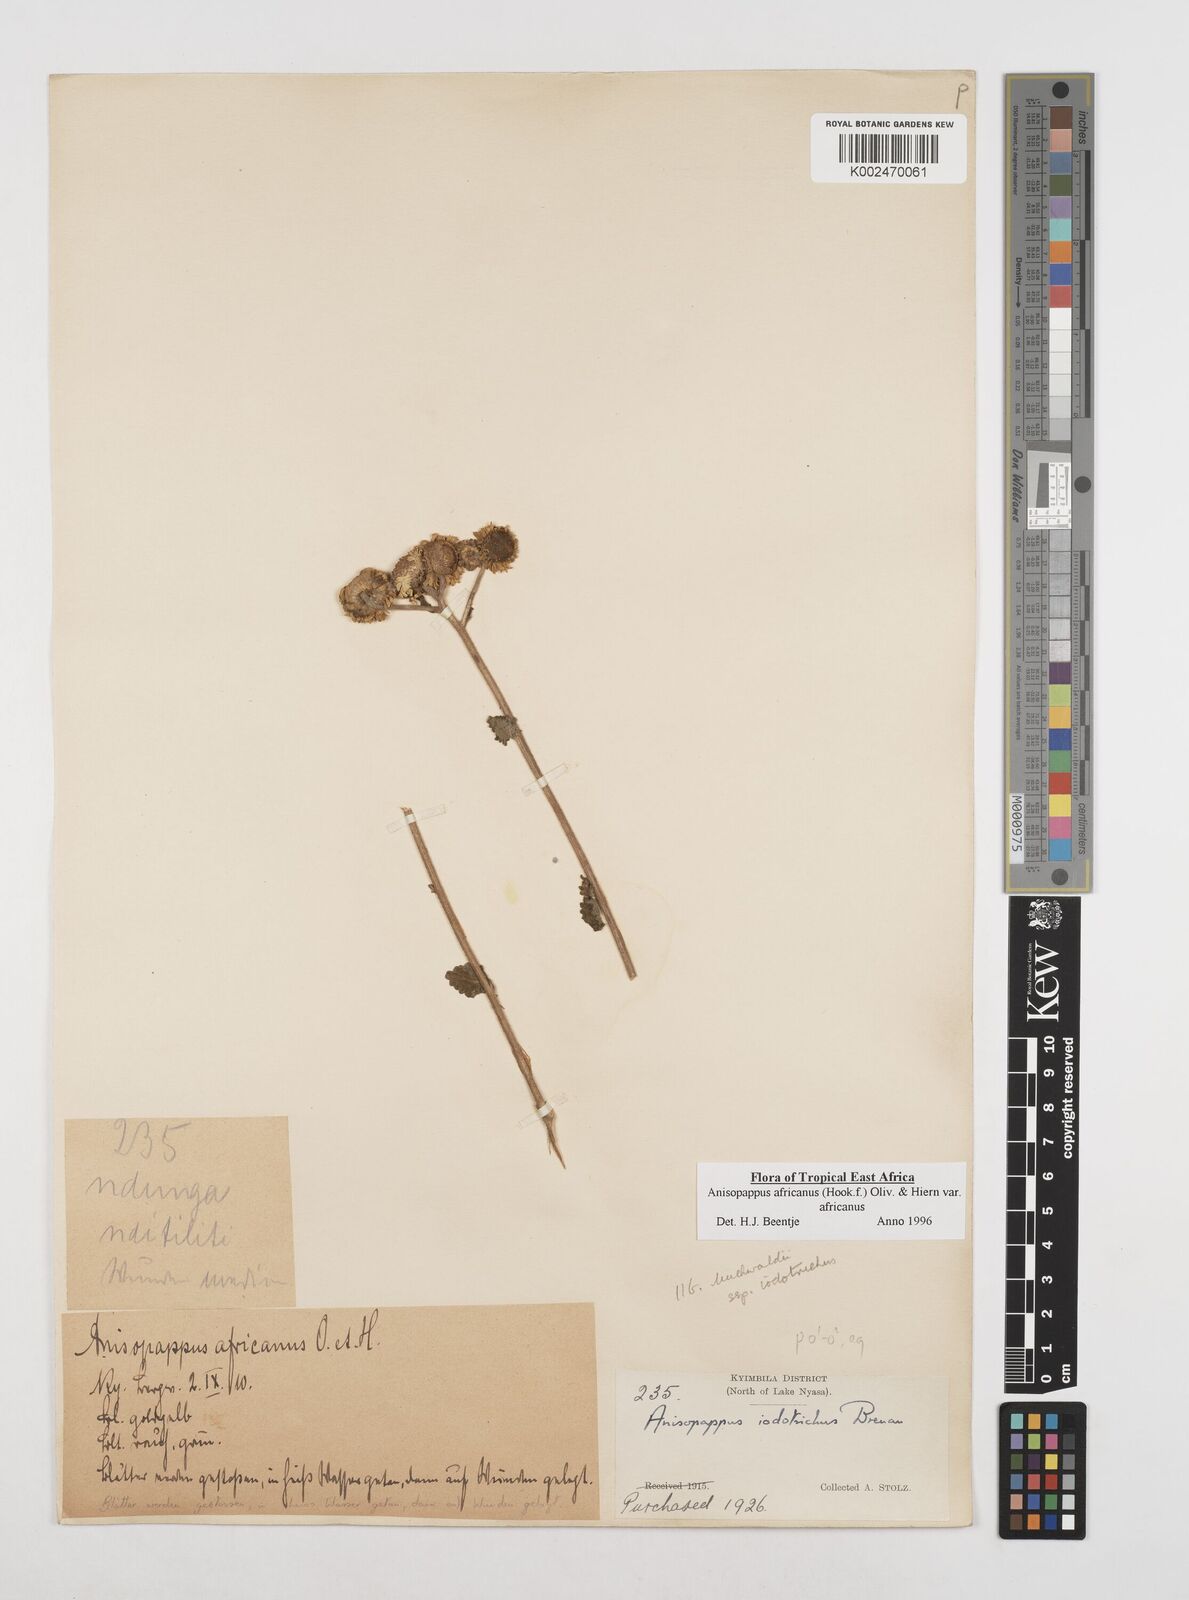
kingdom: Plantae
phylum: Tracheophyta
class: Magnoliopsida
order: Asterales
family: Asteraceae
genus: Anisopappus
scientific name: Anisopappus buchwaldii
